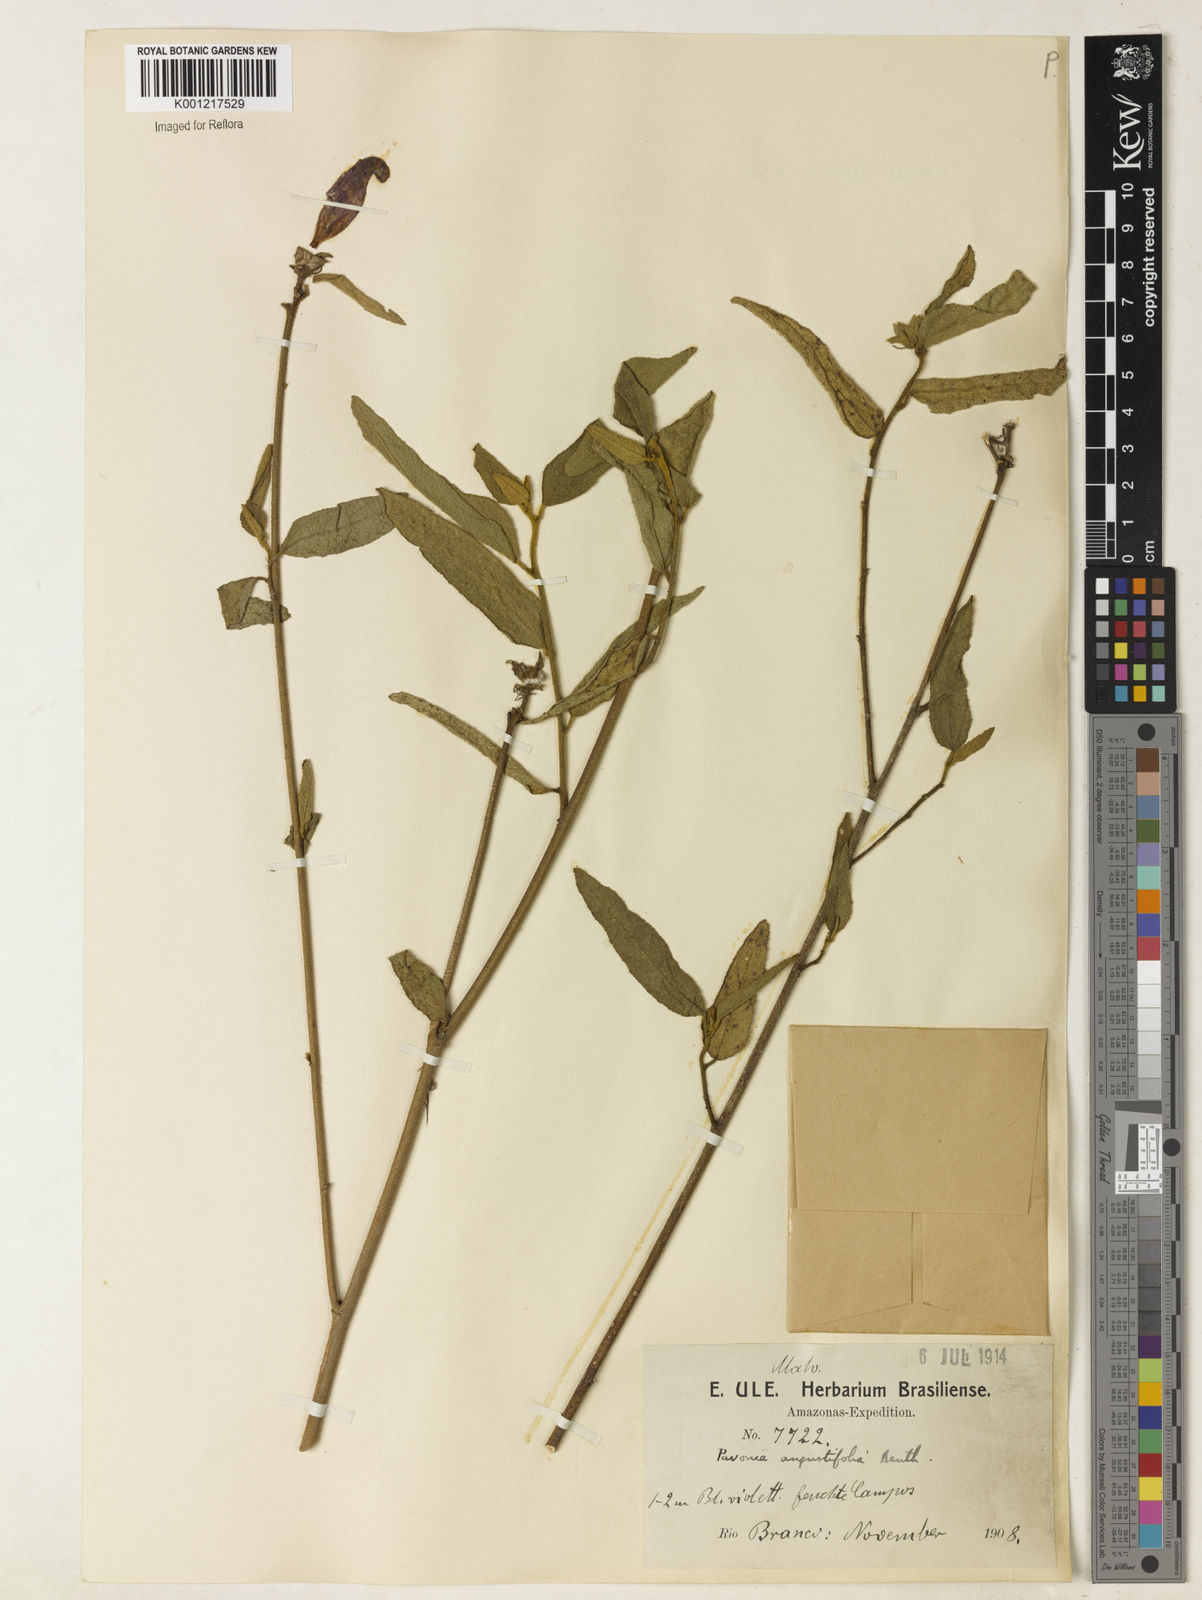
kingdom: Plantae
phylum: Tracheophyta
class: Magnoliopsida
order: Malvales
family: Malvaceae
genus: Pavonia
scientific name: Pavonia angustifolia
